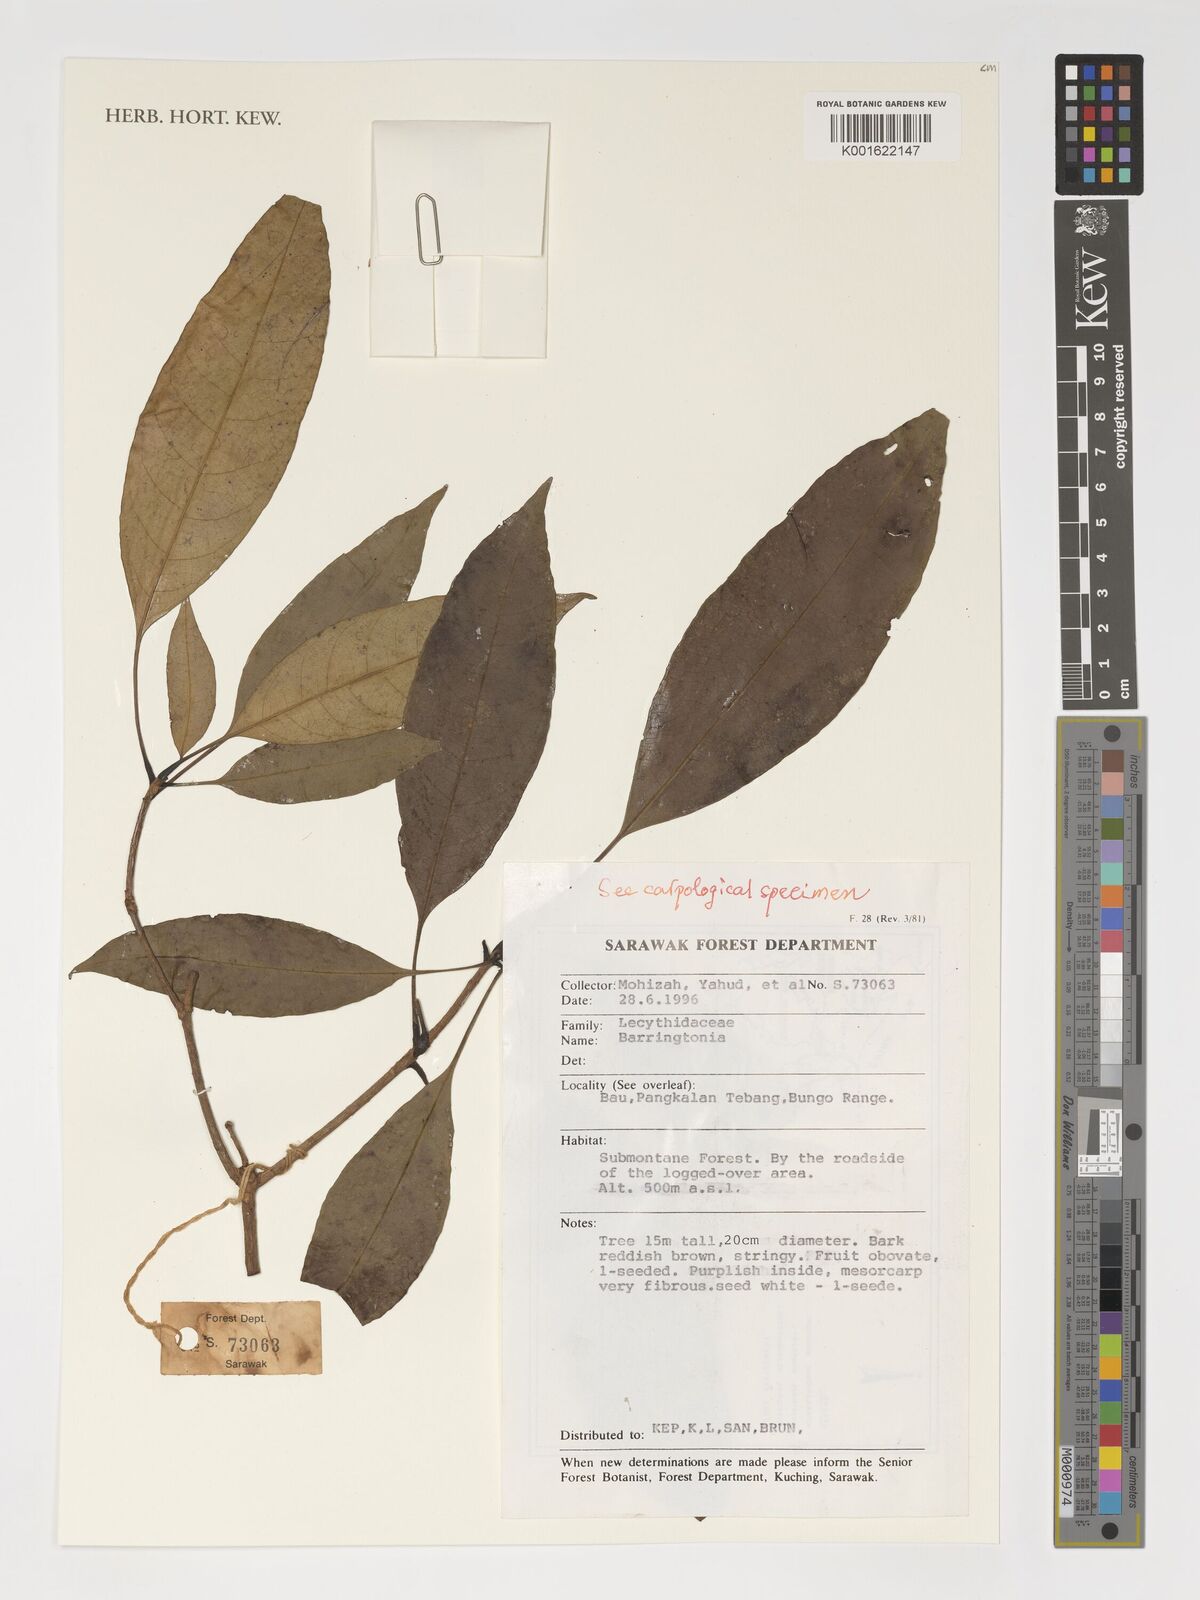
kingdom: Plantae
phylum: Tracheophyta
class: Magnoliopsida
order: Ericales
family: Lecythidaceae
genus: Barringtonia
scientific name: Barringtonia
